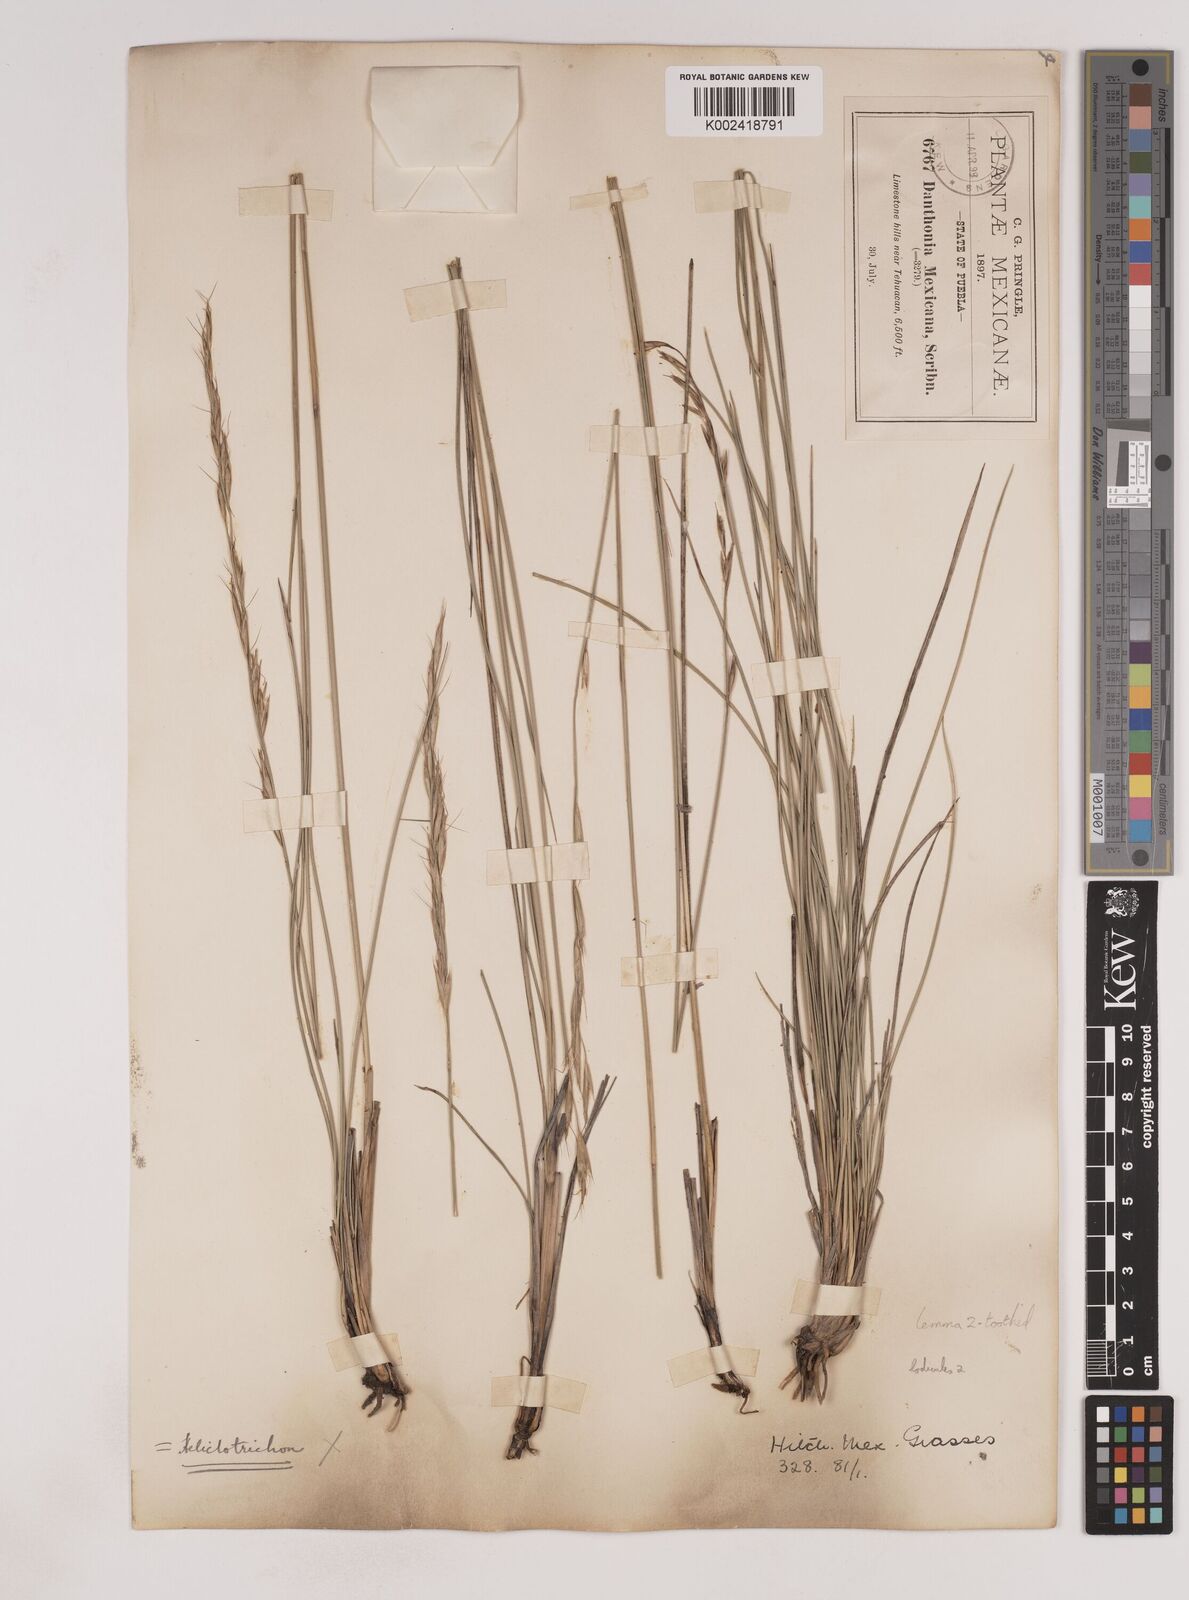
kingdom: Plantae
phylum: Tracheophyta
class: Liliopsida
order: Poales
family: Poaceae
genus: Metcalfia
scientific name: Metcalfia mexicana
